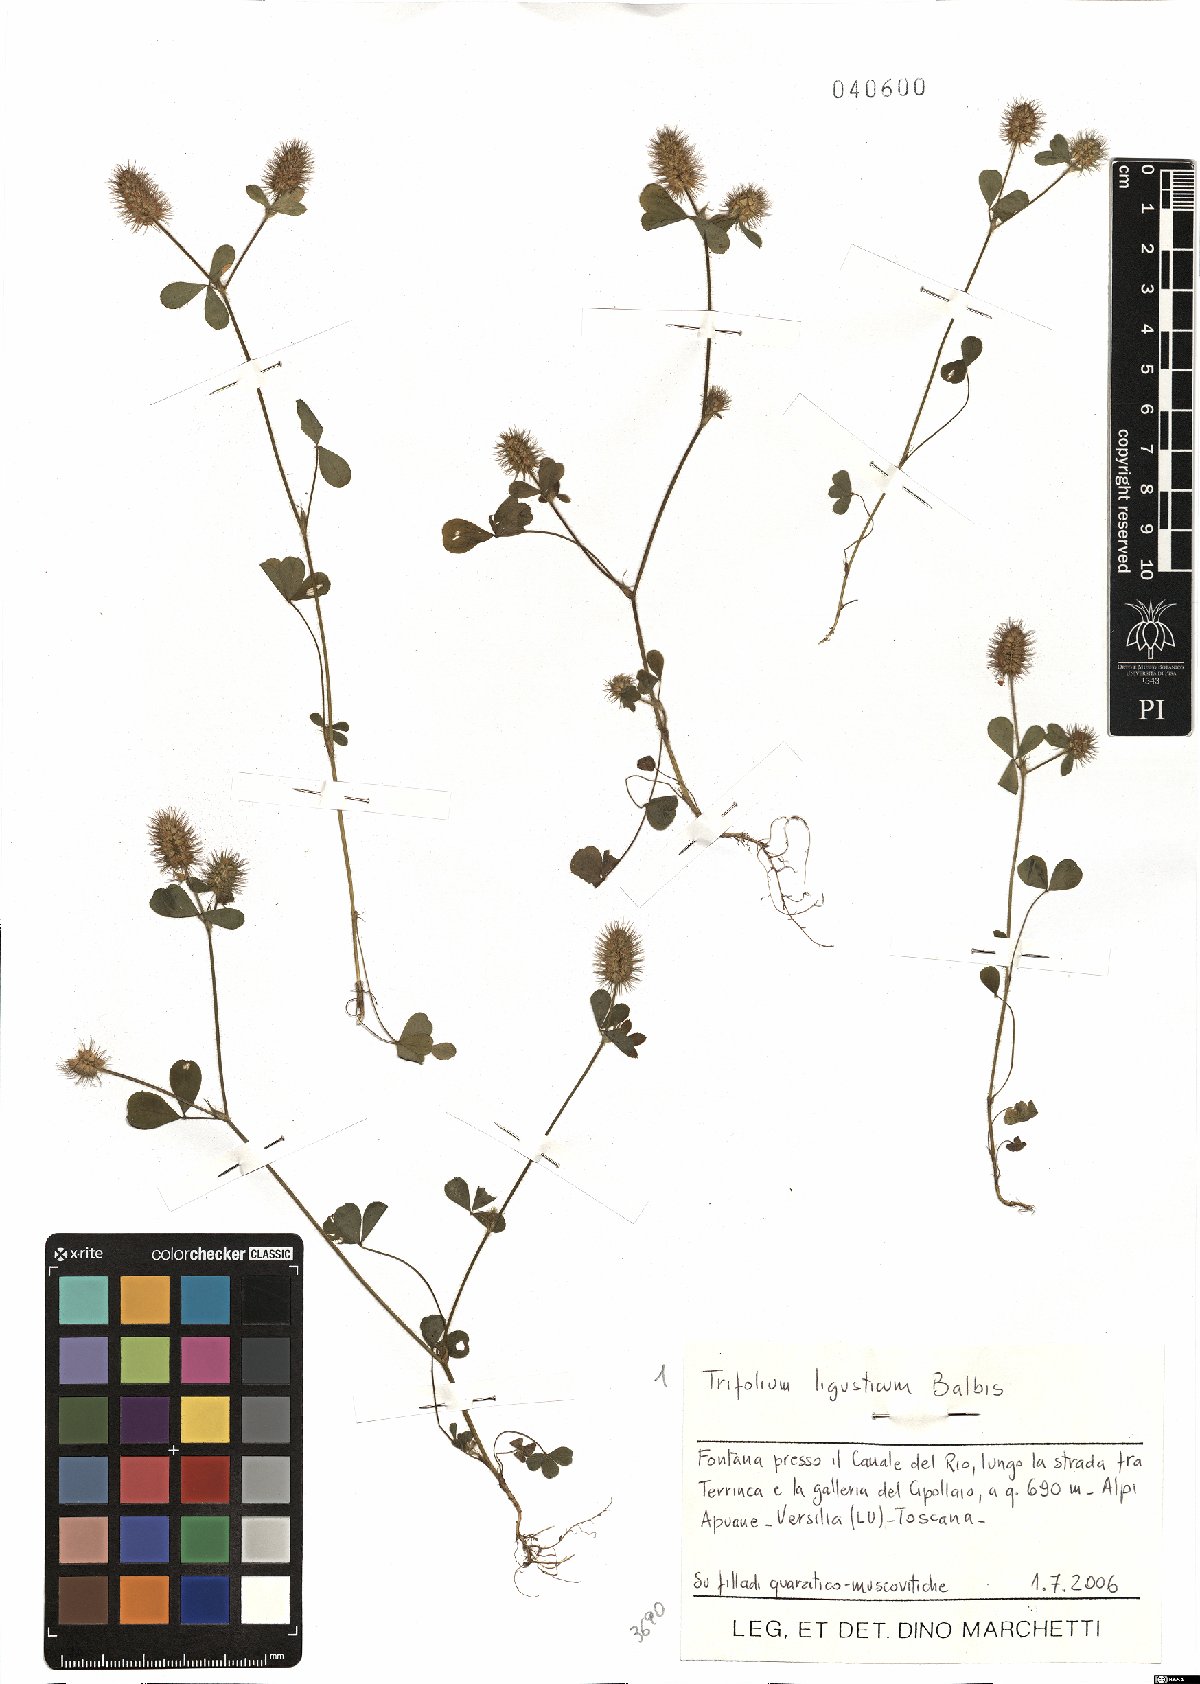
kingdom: Plantae
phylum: Tracheophyta
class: Magnoliopsida
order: Fabales
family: Fabaceae
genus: Trifolium
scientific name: Trifolium ligusticum
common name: Ligurian clover
